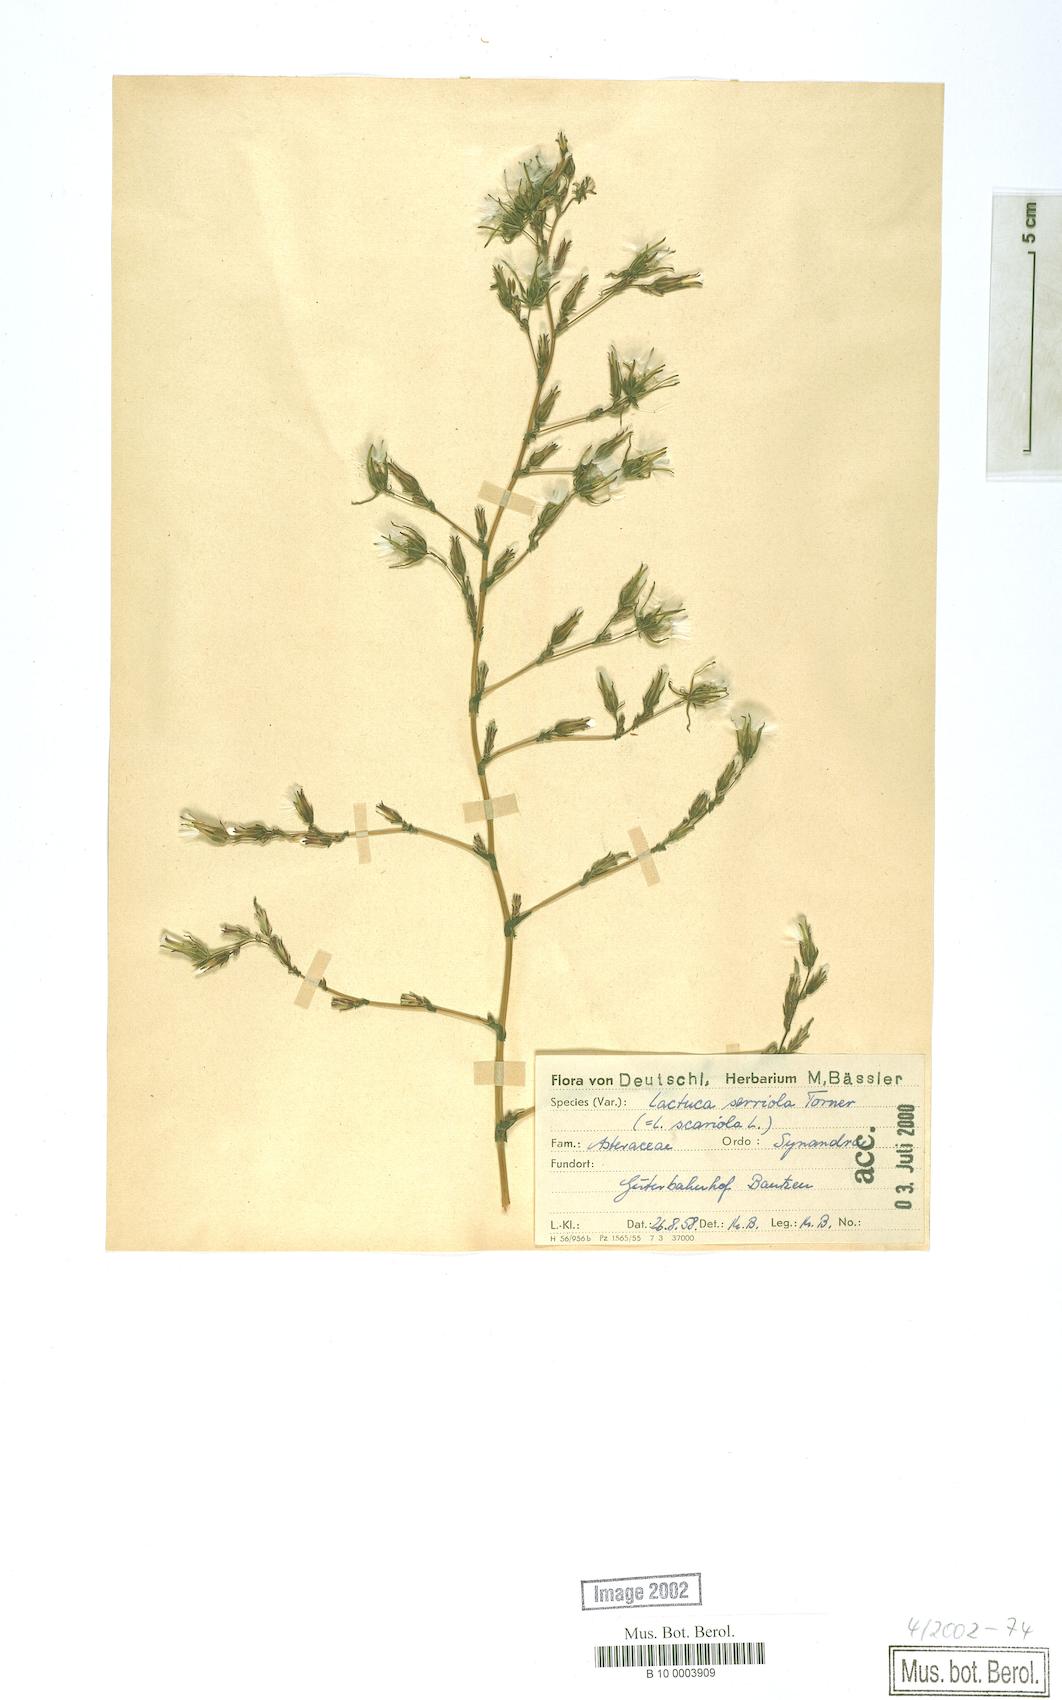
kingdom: Plantae
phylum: Tracheophyta
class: Magnoliopsida
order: Asterales
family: Asteraceae
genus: Lactuca
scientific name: Lactuca serriola
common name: Prickly lettuce
